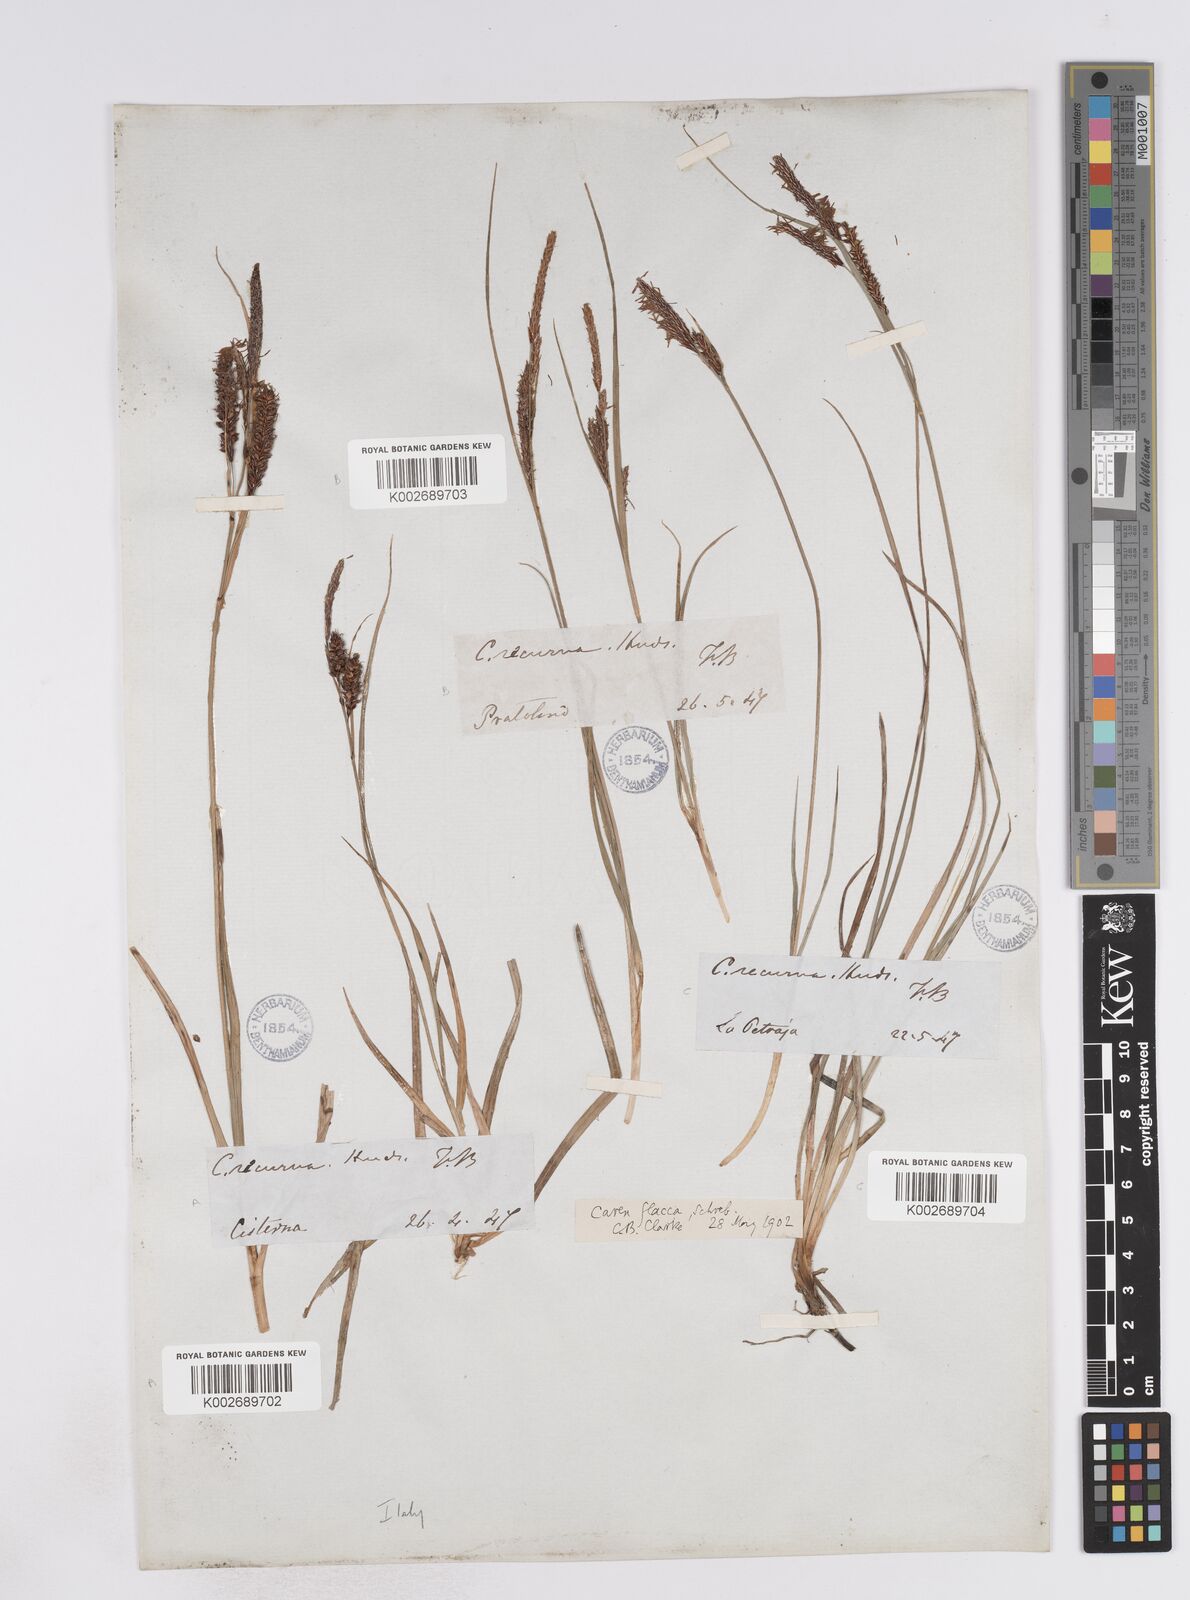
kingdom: Plantae
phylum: Tracheophyta
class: Liliopsida
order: Poales
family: Cyperaceae
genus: Carex
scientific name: Carex flacca
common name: Glaucous sedge
